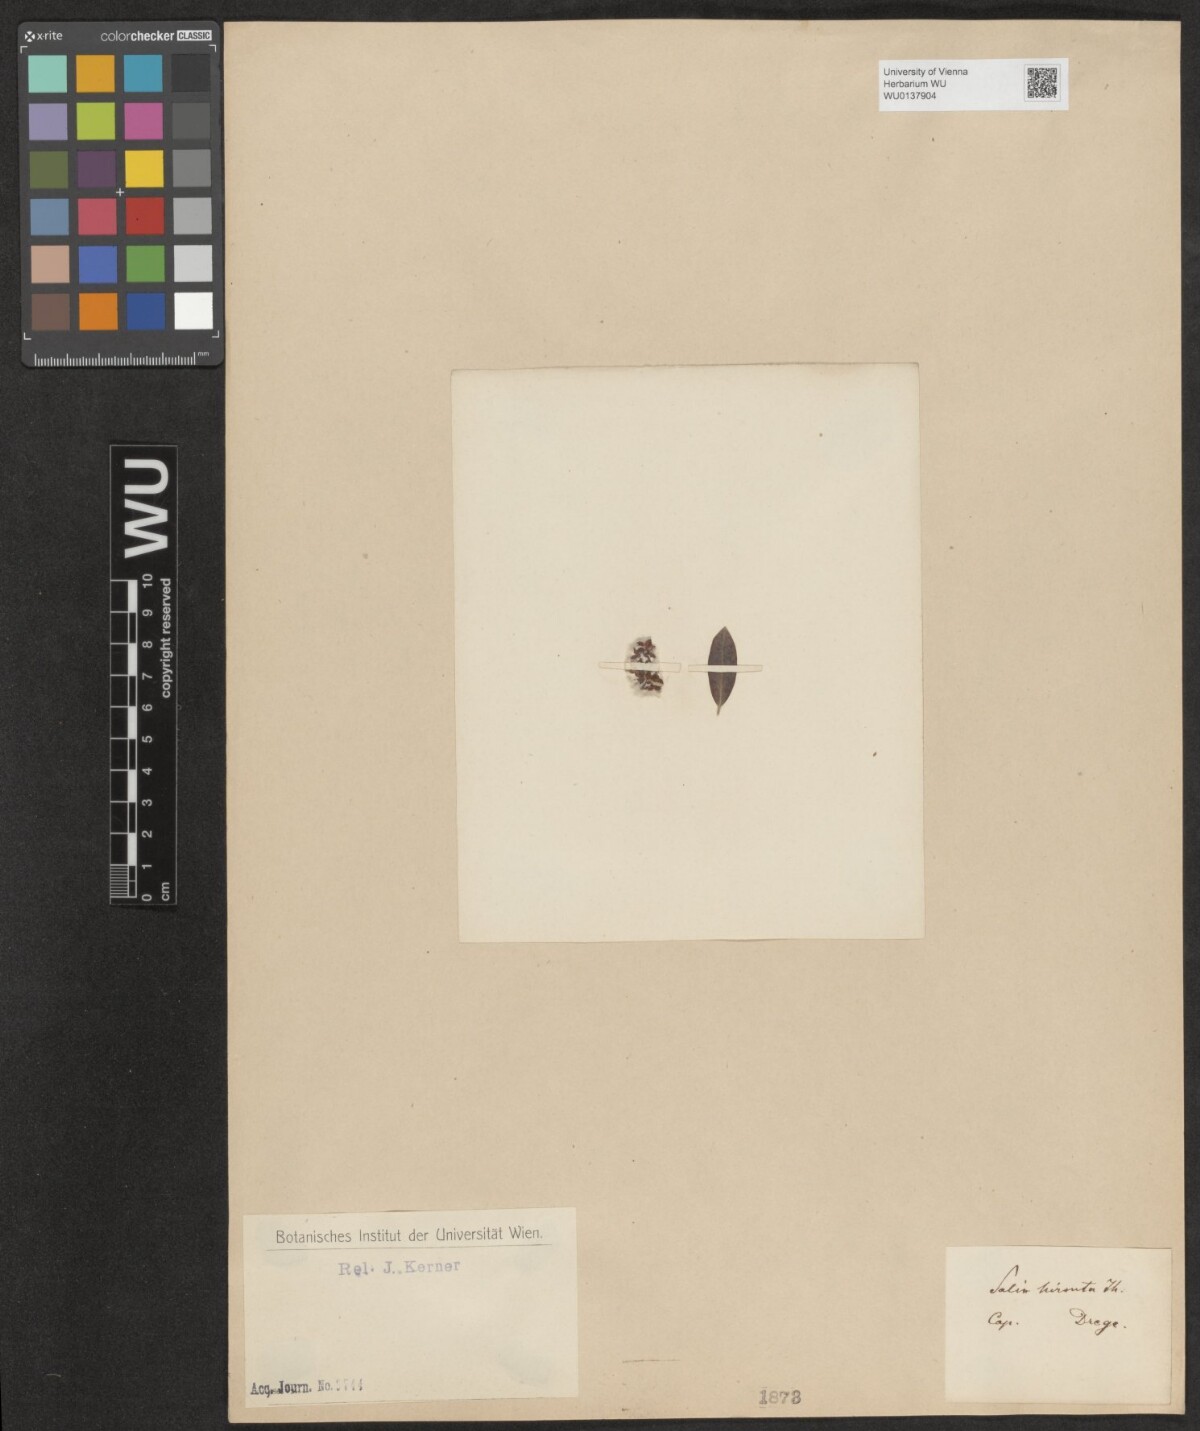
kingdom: Plantae
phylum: Tracheophyta
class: Magnoliopsida
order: Malpighiales
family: Salicaceae
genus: Salix
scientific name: Salix mucronata
